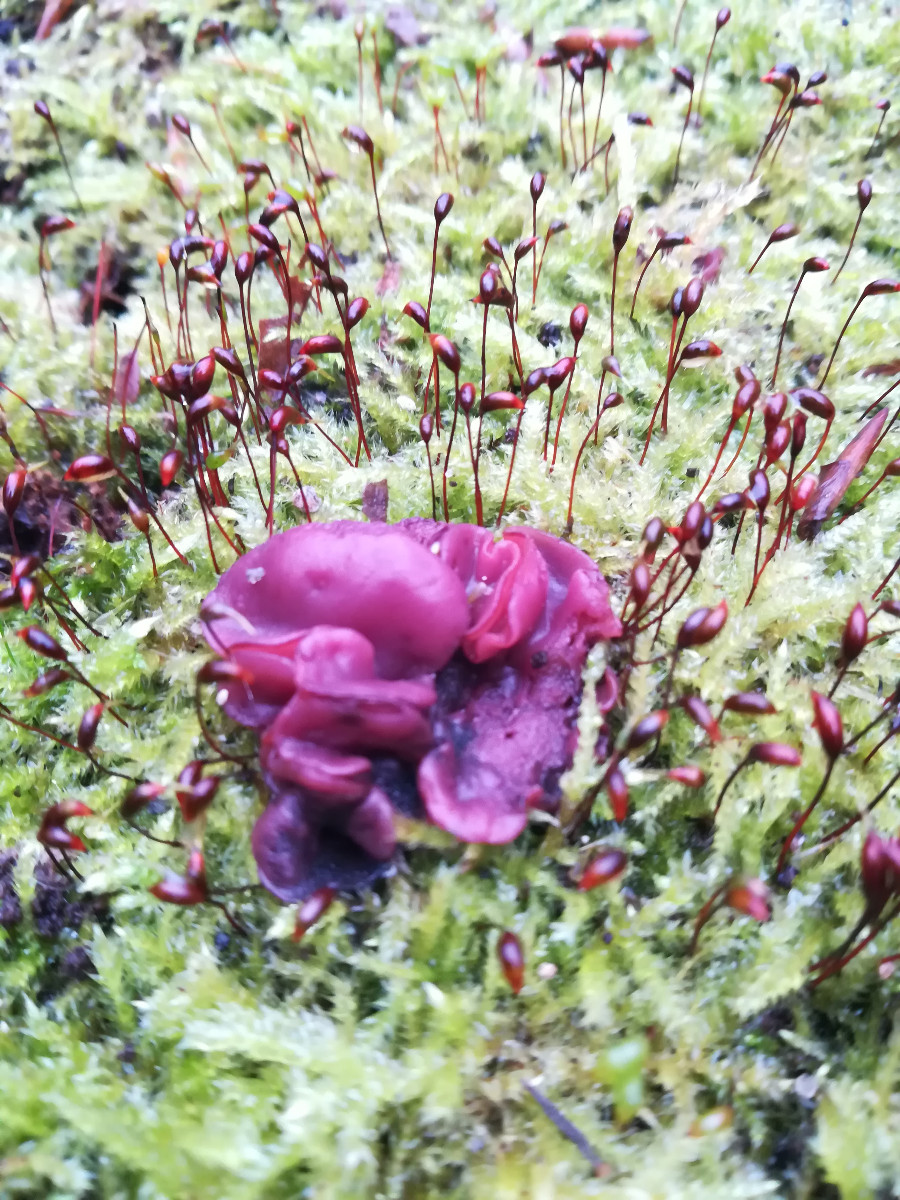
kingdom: Fungi
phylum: Ascomycota
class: Leotiomycetes
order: Helotiales
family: Gelatinodiscaceae
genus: Ascocoryne
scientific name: Ascocoryne cylichnium
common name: stor sejskive
